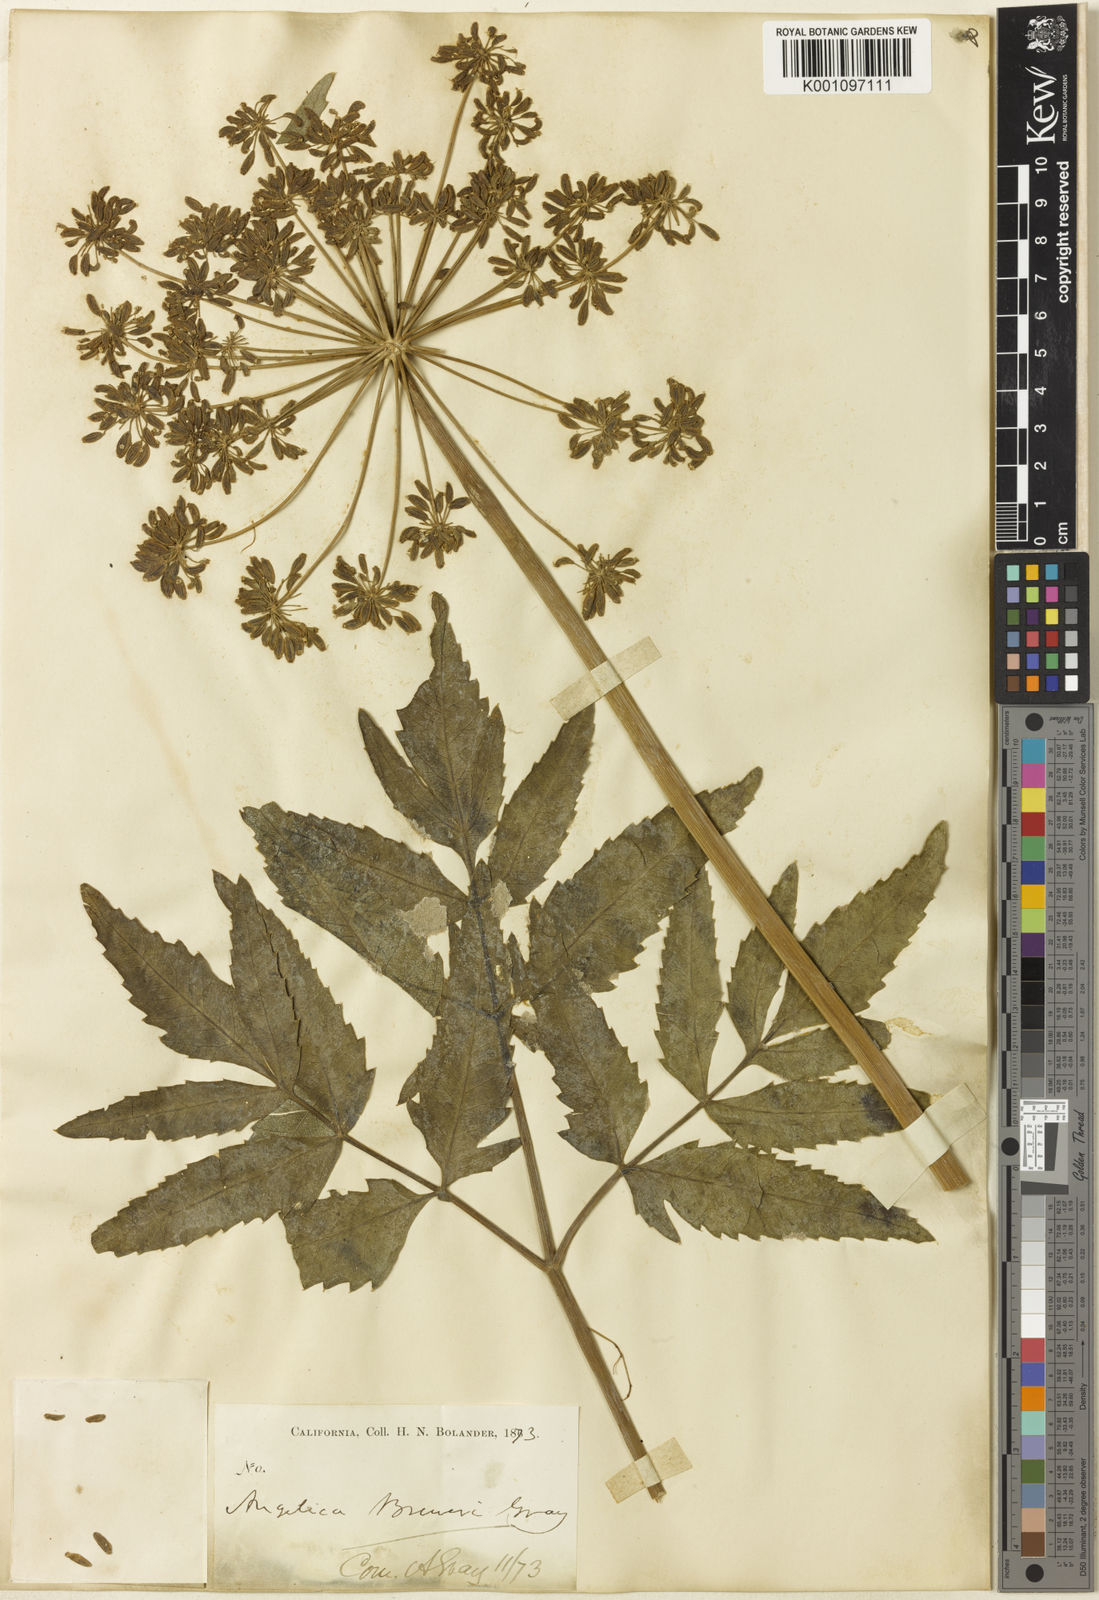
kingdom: Plantae
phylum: Tracheophyta
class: Magnoliopsida
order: Apiales
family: Apiaceae
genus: Angelica
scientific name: Angelica breweri
